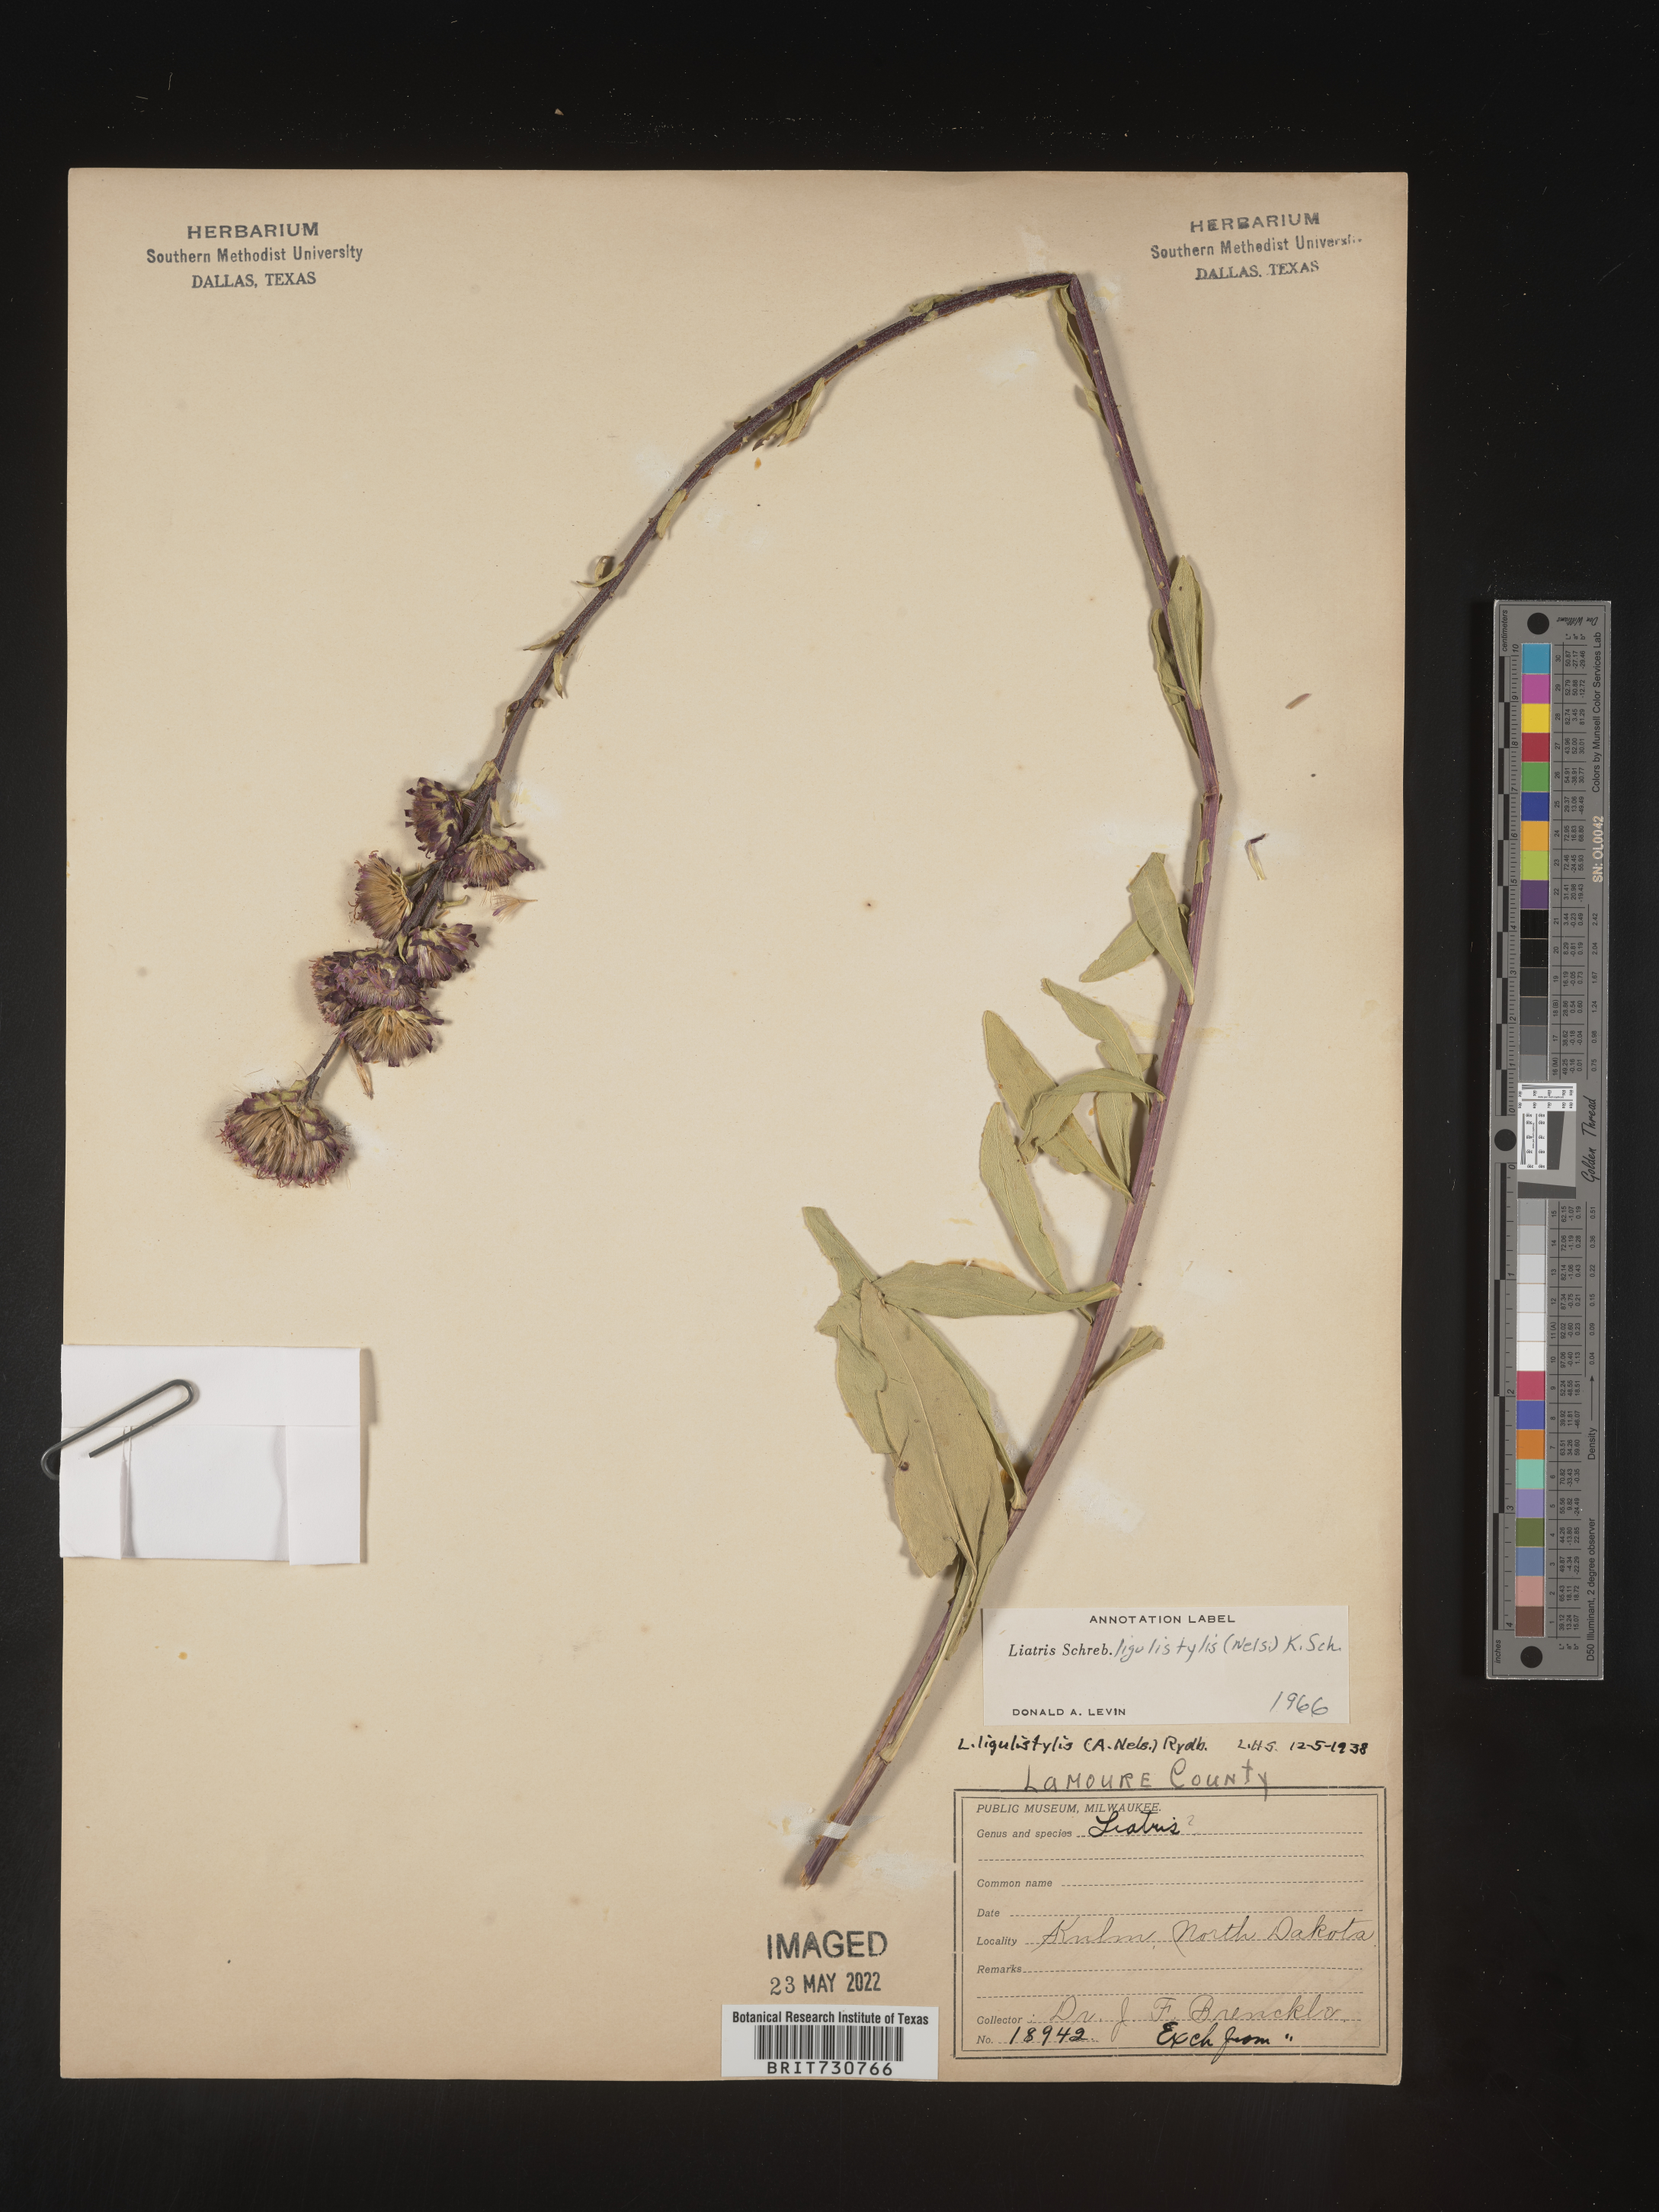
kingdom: Plantae
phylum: Tracheophyta
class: Magnoliopsida
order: Asterales
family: Asteraceae
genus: Liatris
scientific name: Liatris ligulistylis
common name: Northern plains gayfeather
